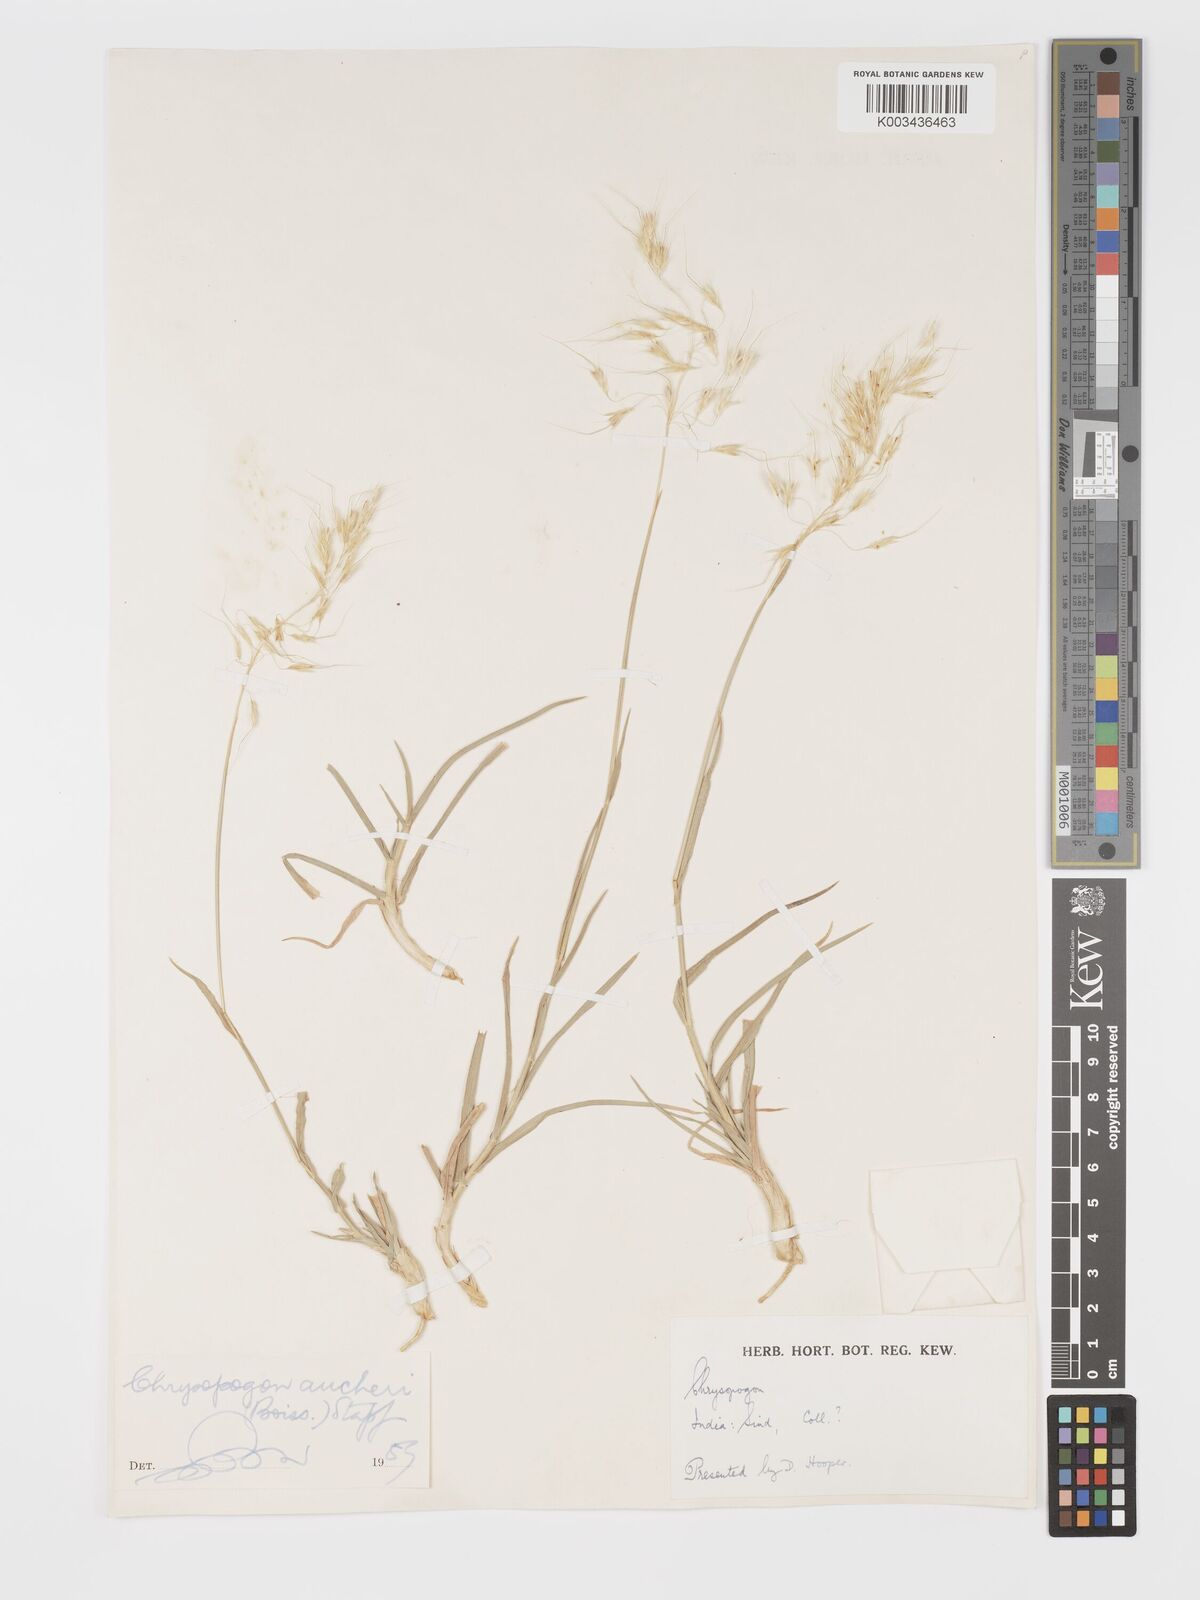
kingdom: Plantae
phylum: Tracheophyta
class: Liliopsida
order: Poales
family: Poaceae
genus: Chrysopogon
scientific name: Chrysopogon aucheri
